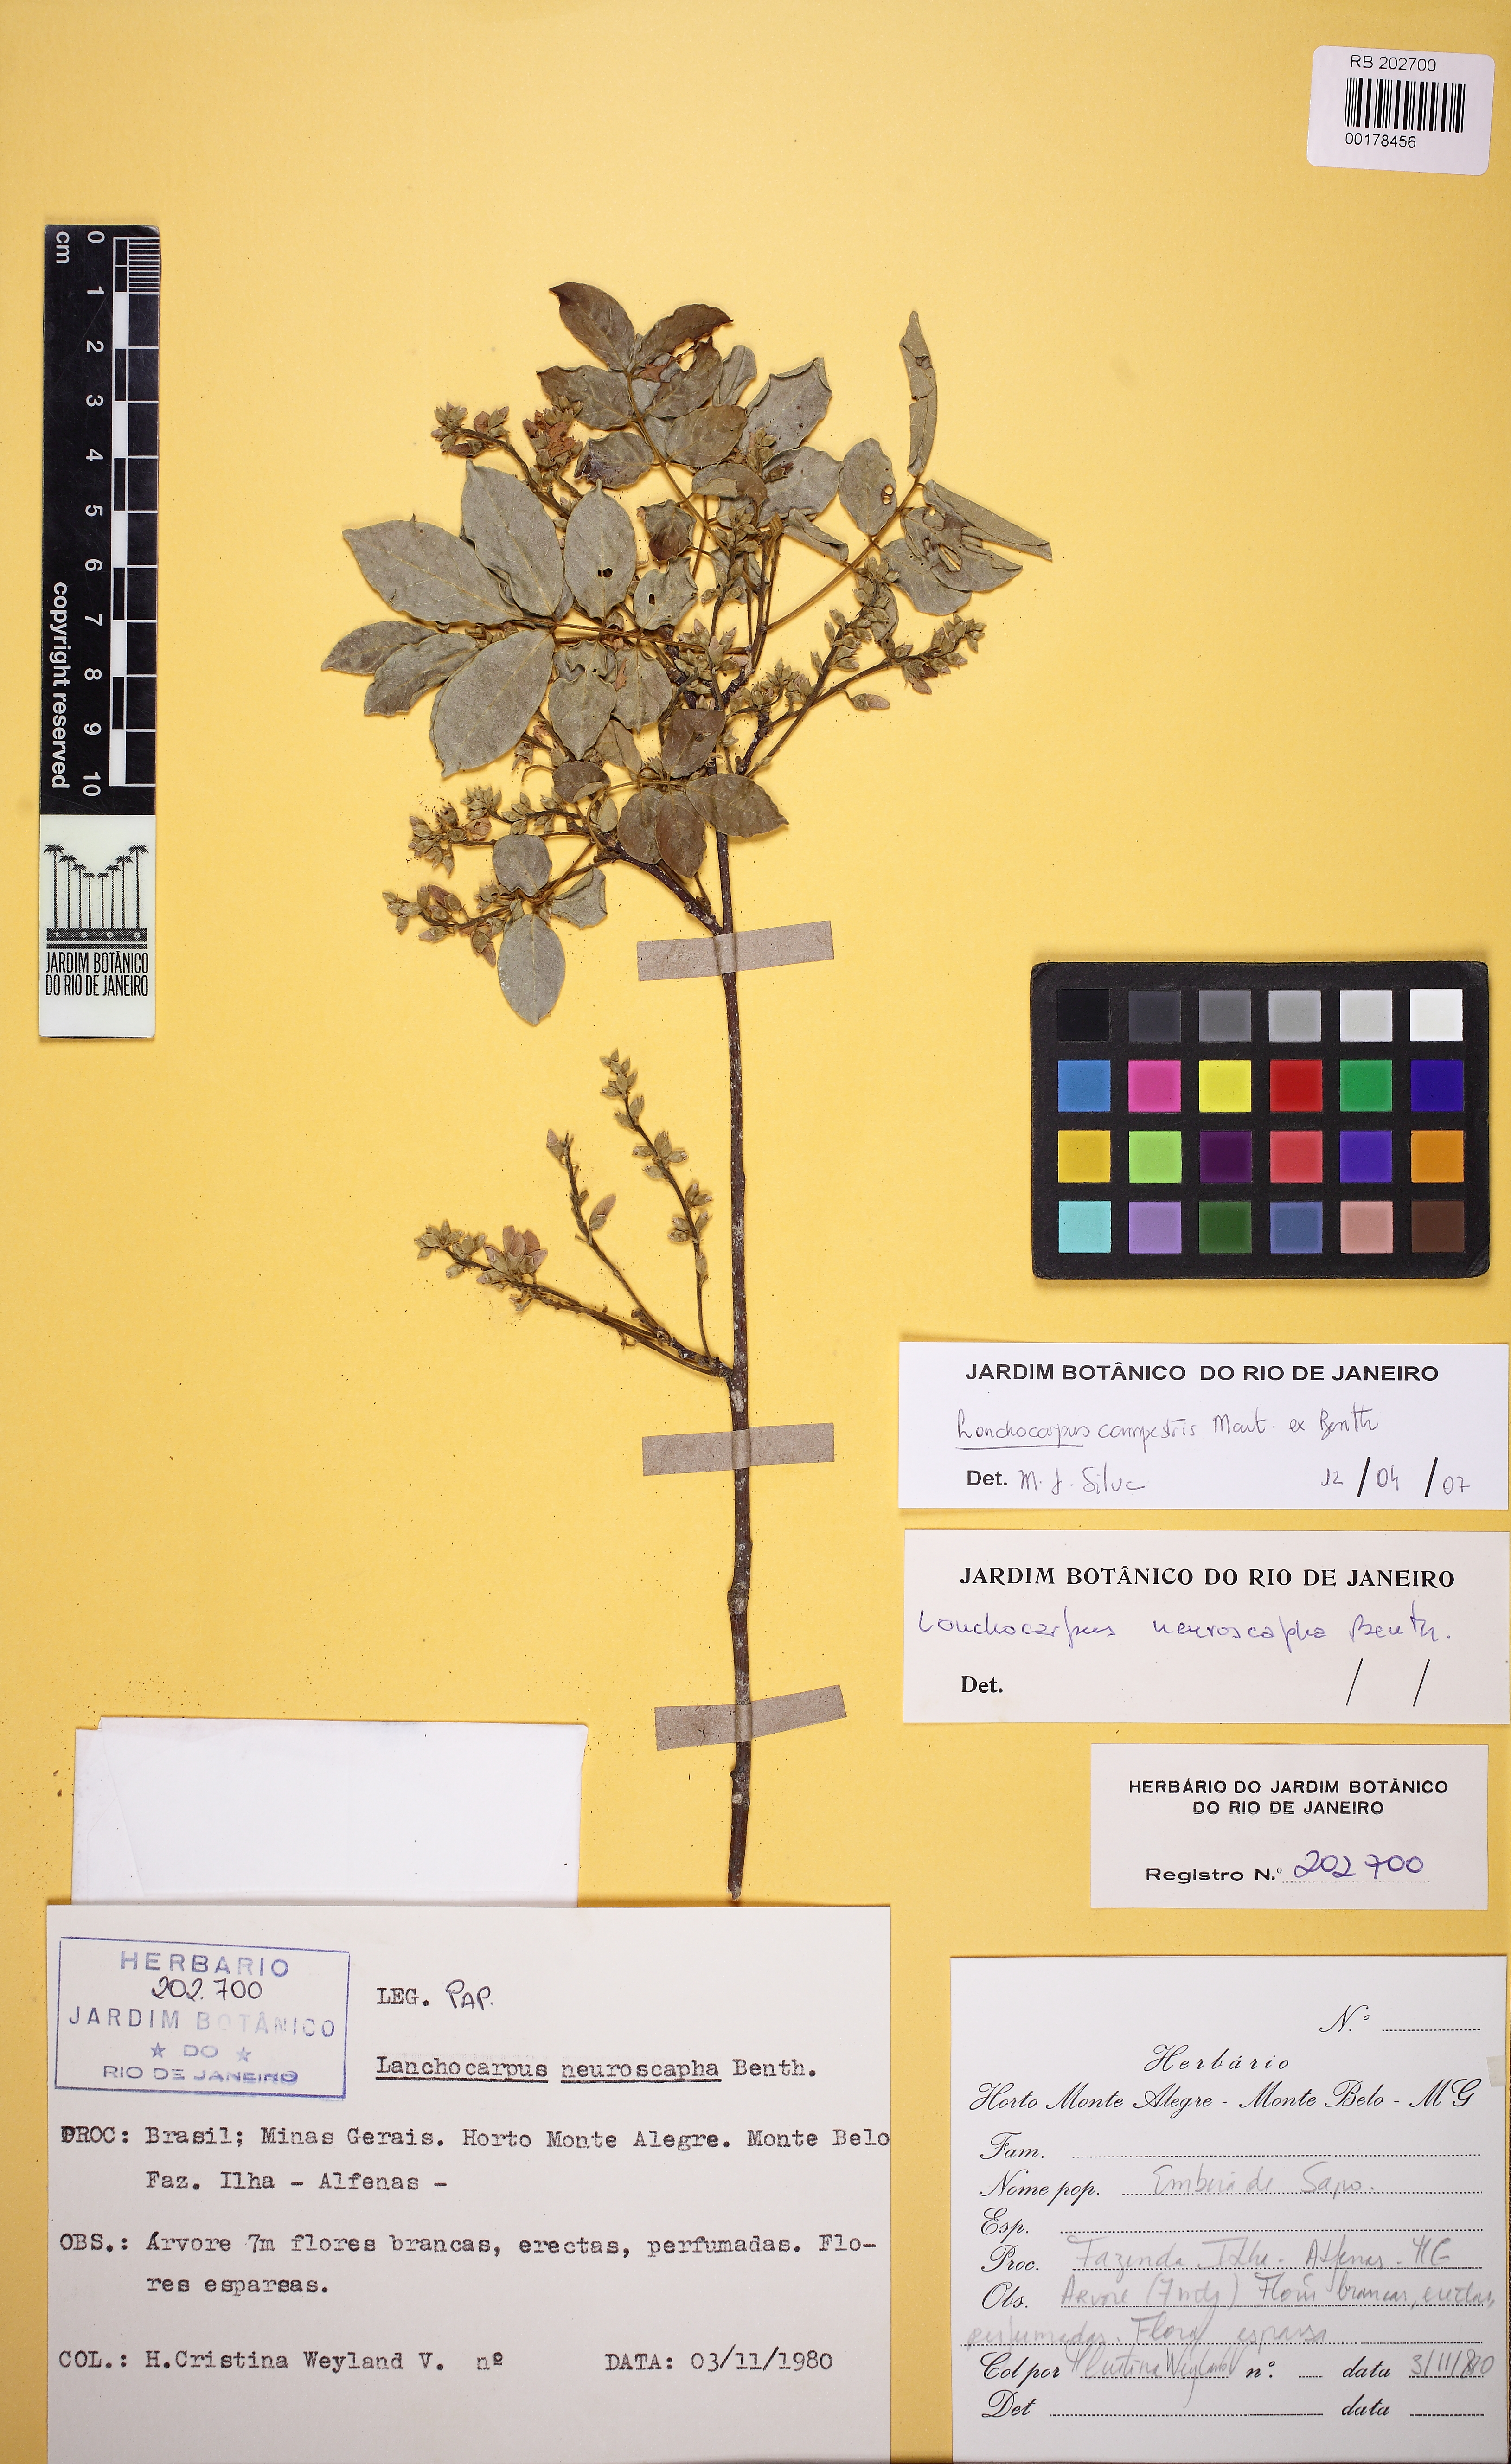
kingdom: Plantae
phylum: Tracheophyta
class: Magnoliopsida
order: Fabales
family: Fabaceae
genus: Lonchocarpus
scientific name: Lonchocarpus cultratus
